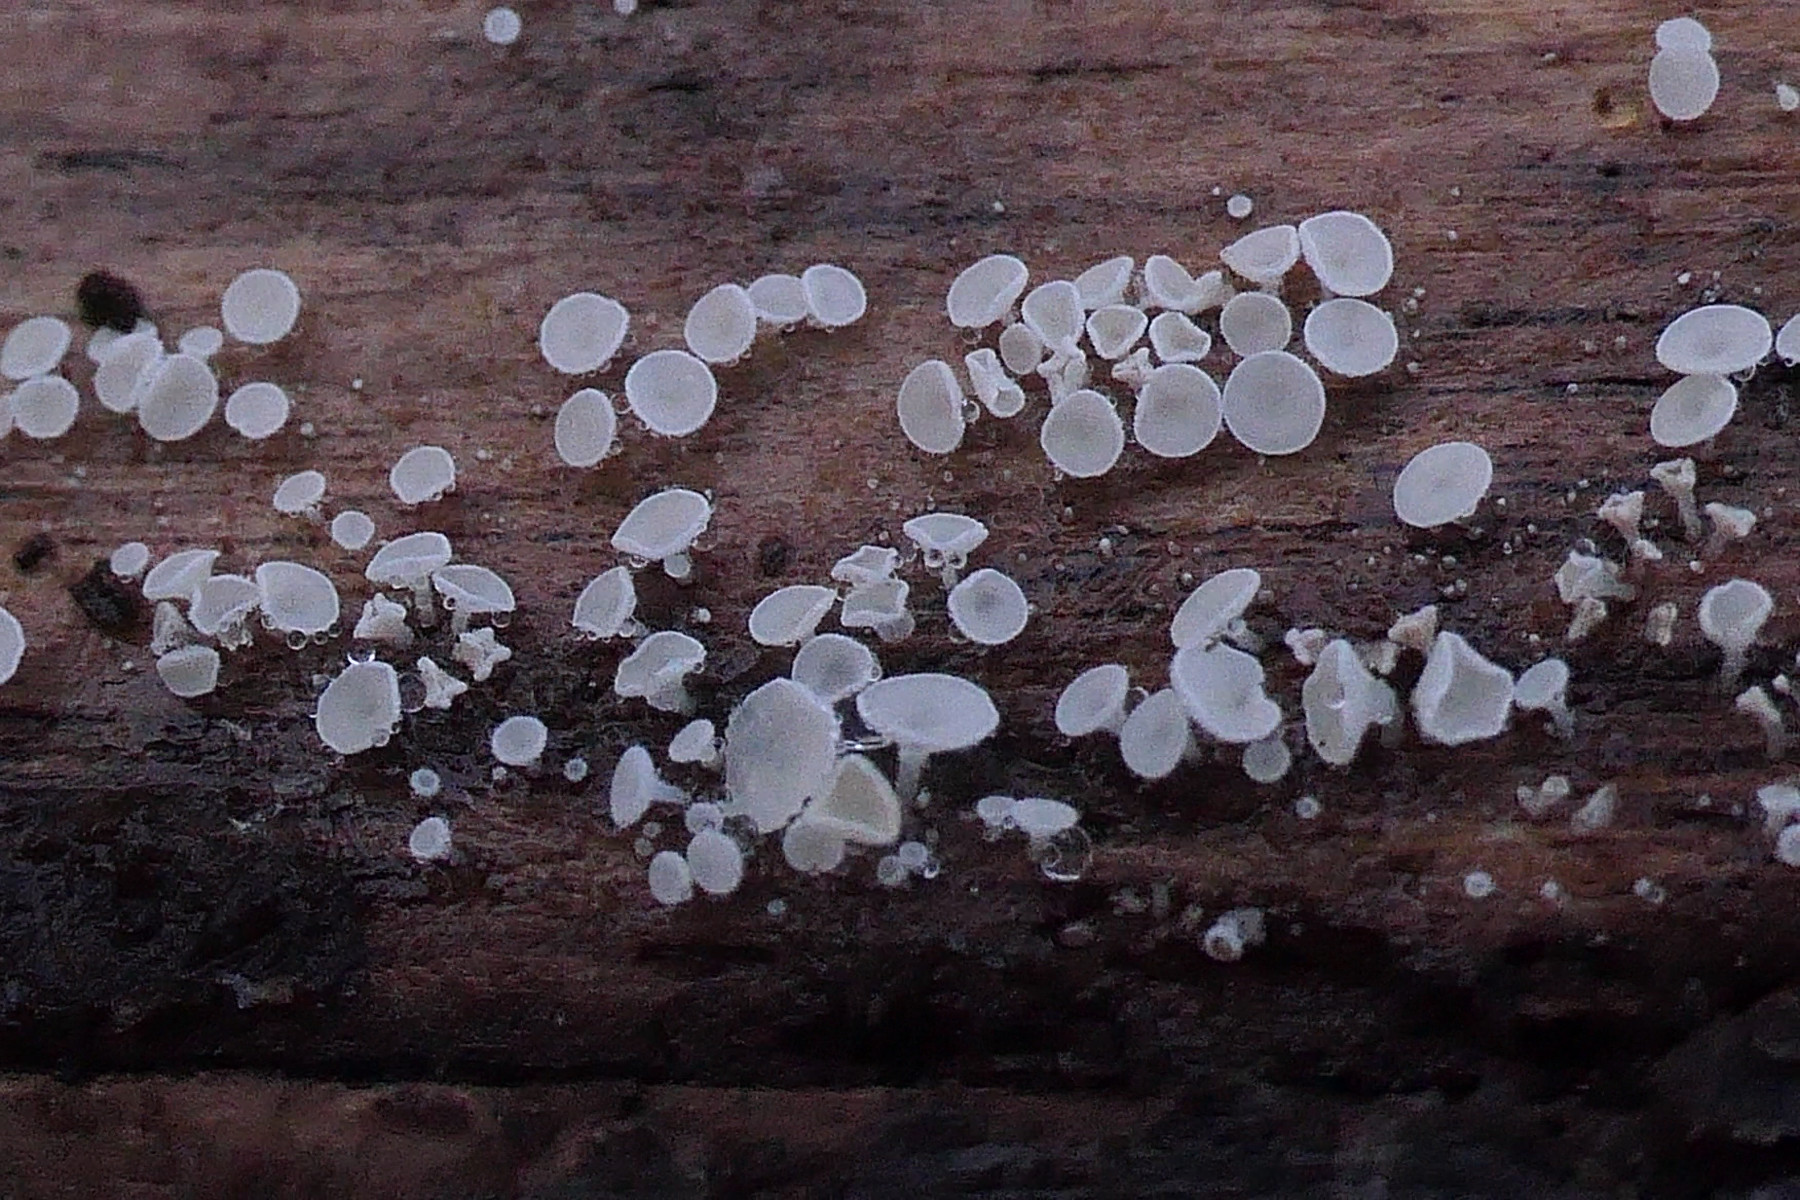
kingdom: Fungi
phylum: Ascomycota
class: Leotiomycetes
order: Helotiales
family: Lachnaceae
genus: Lachnum
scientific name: Lachnum impudicum
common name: vinter-frynseskive
